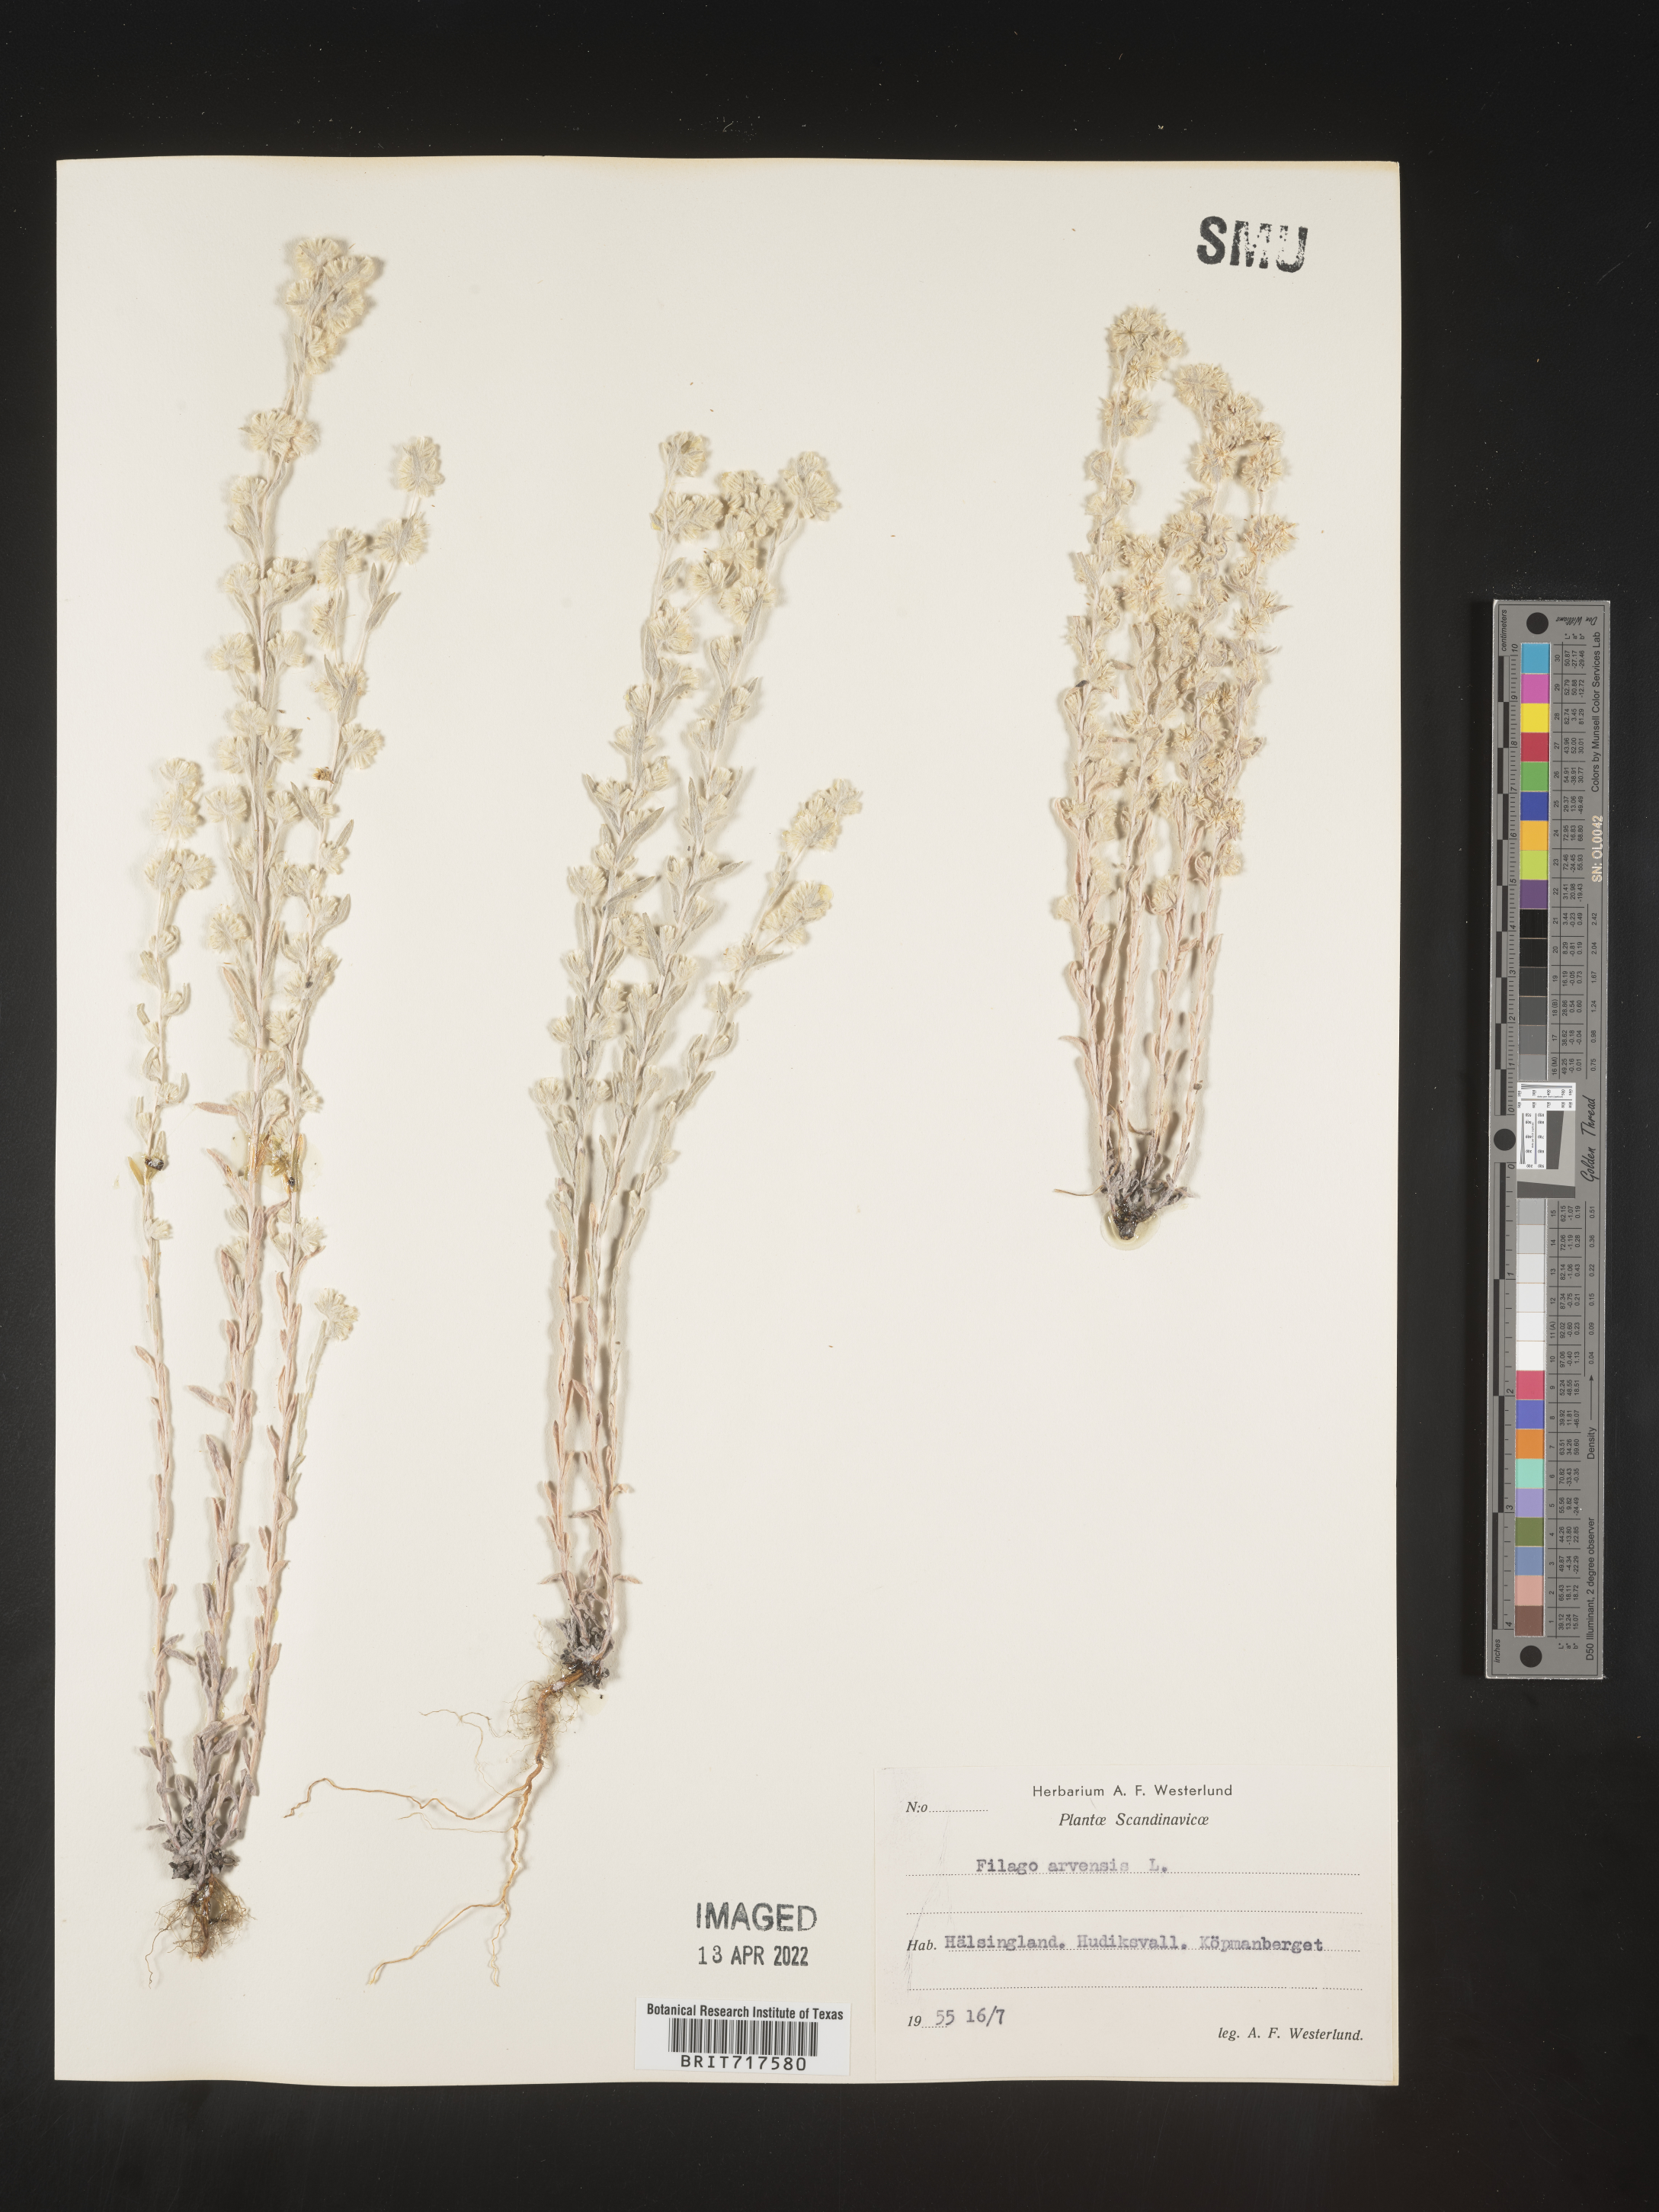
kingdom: Plantae
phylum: Tracheophyta
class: Magnoliopsida
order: Asterales
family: Asteraceae
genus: Filago
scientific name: Filago
